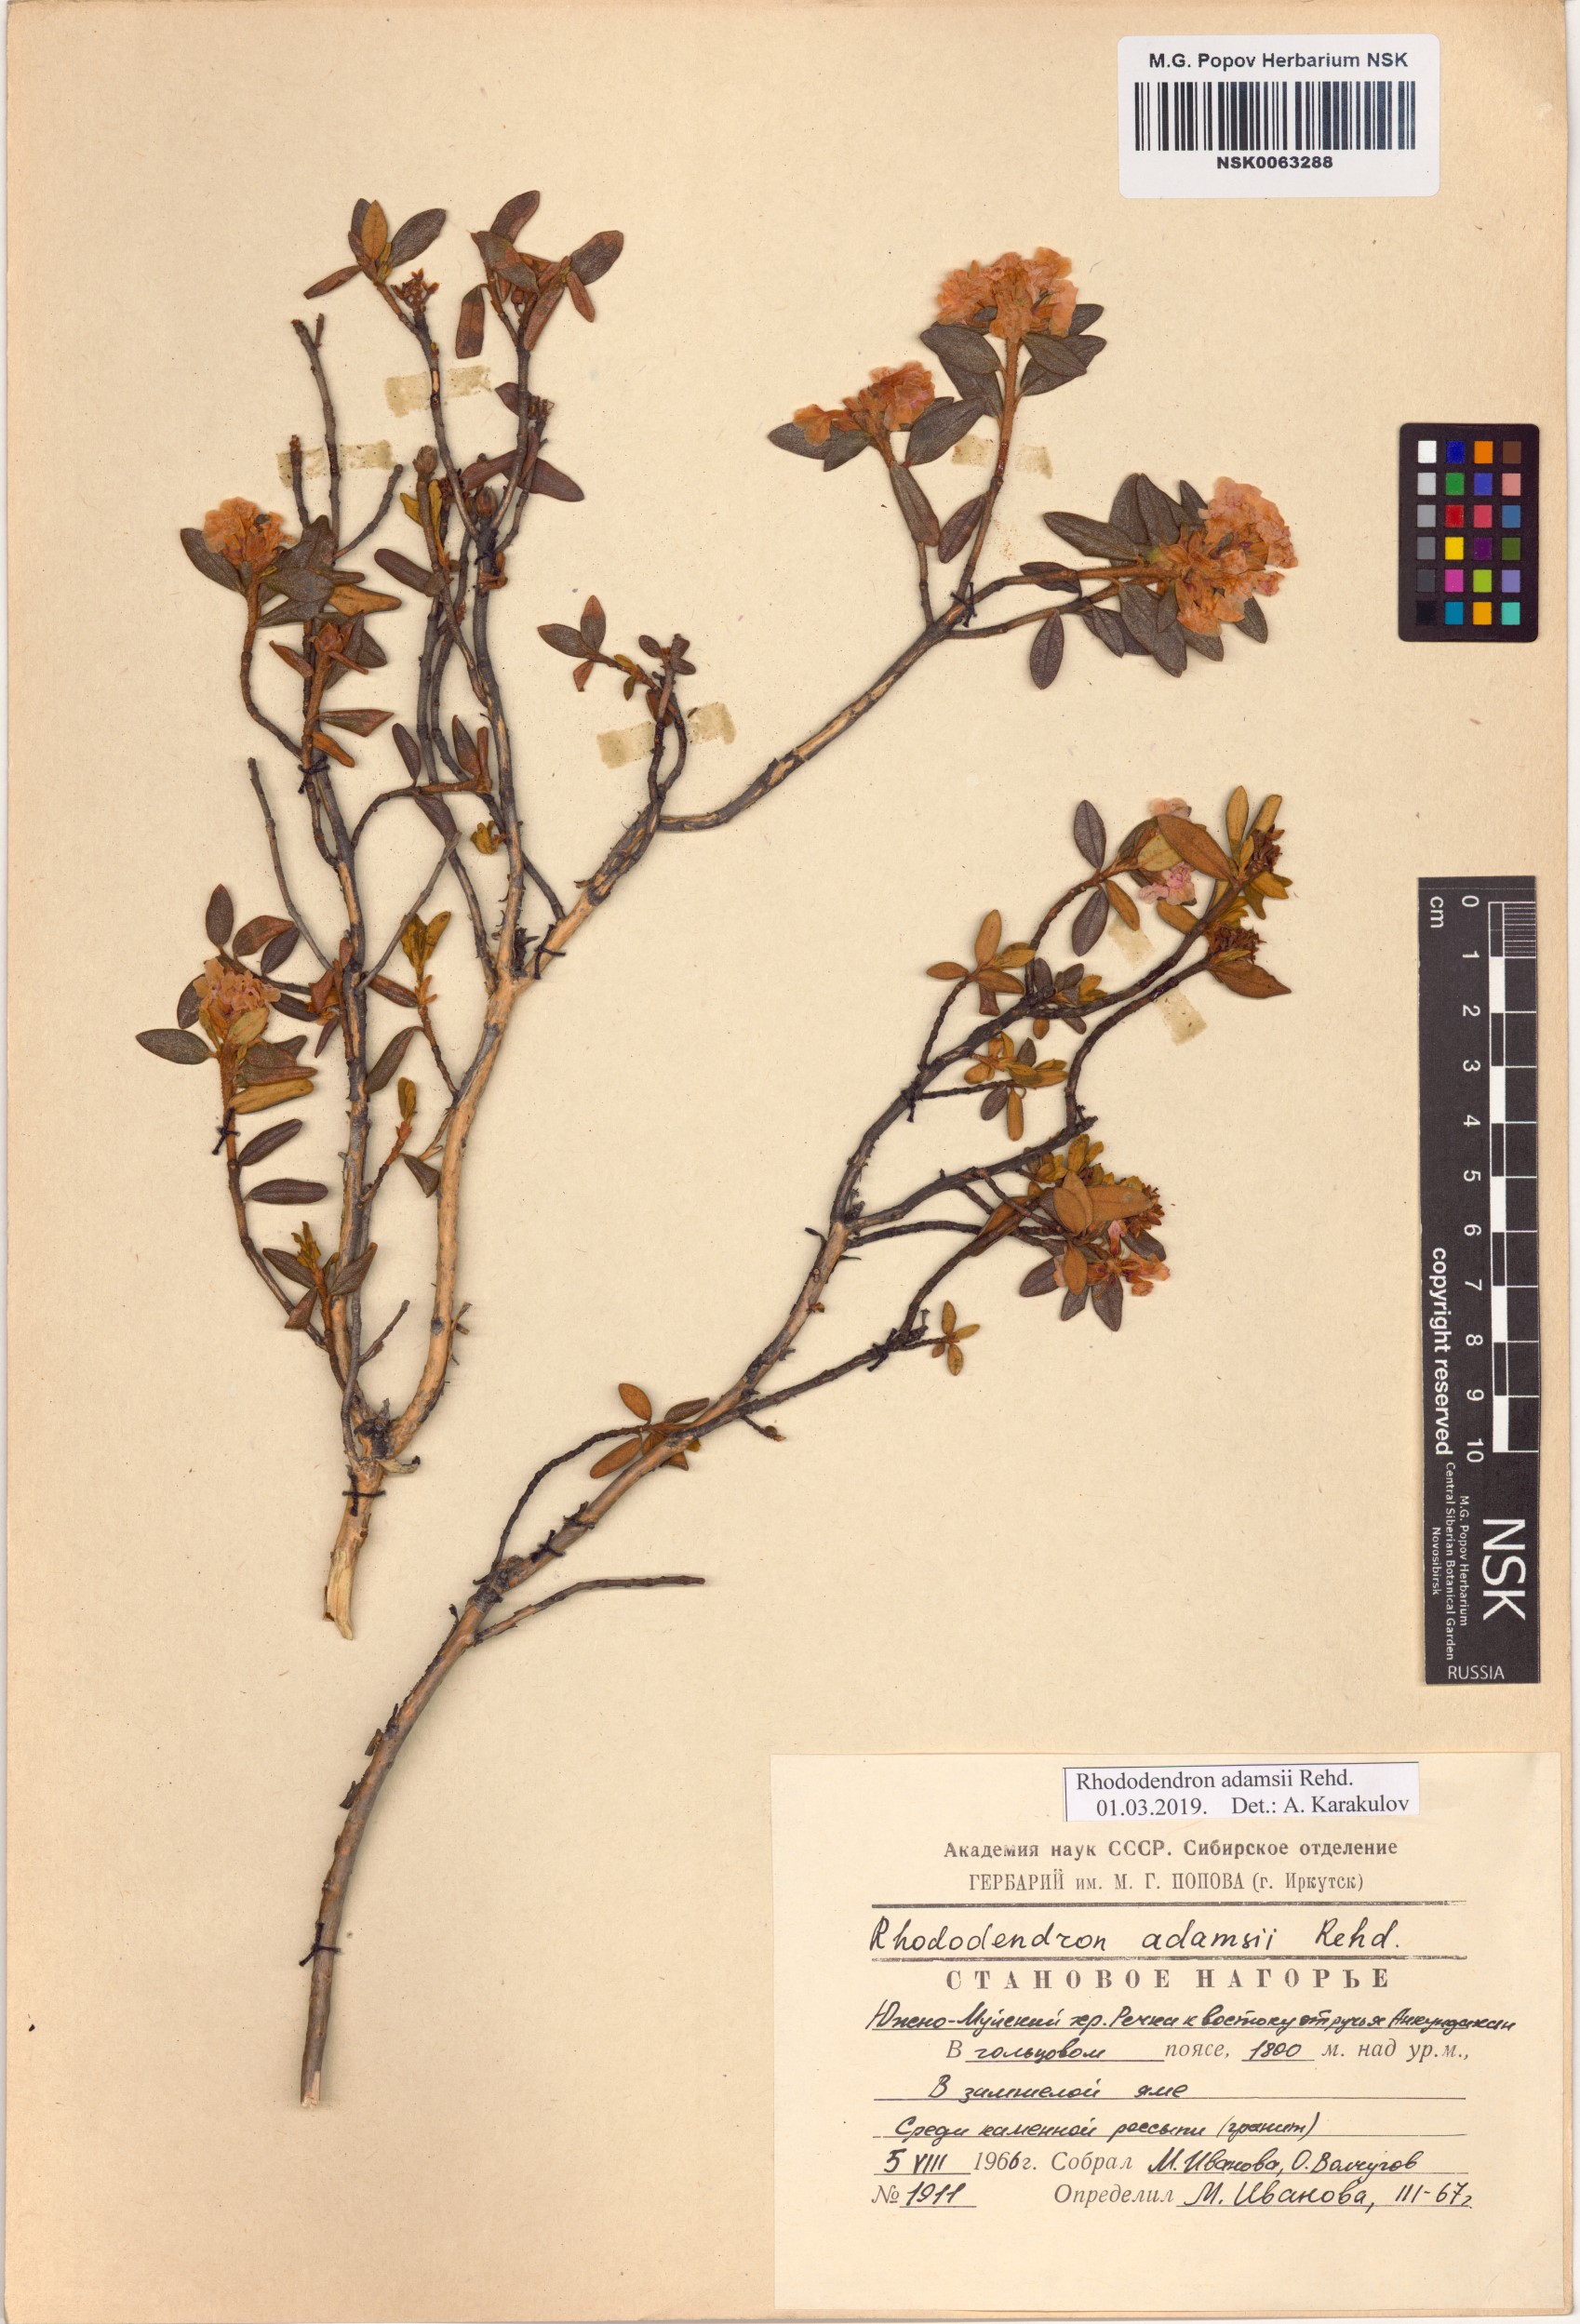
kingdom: Plantae
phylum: Tracheophyta
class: Magnoliopsida
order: Ericales
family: Ericaceae
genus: Rhododendron
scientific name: Rhododendron adamsii
